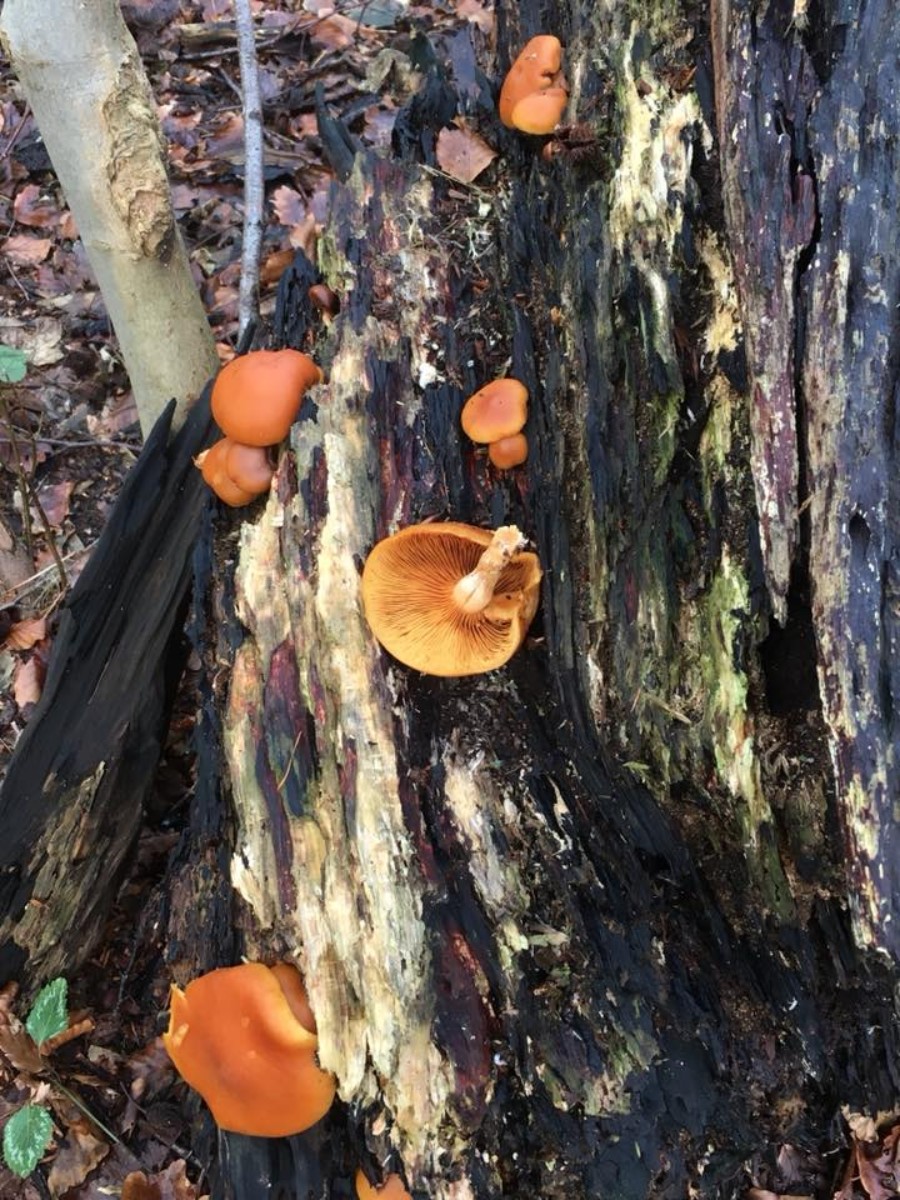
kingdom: Fungi
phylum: Basidiomycota
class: Agaricomycetes
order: Agaricales
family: Hymenogastraceae
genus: Gymnopilus
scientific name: Gymnopilus
